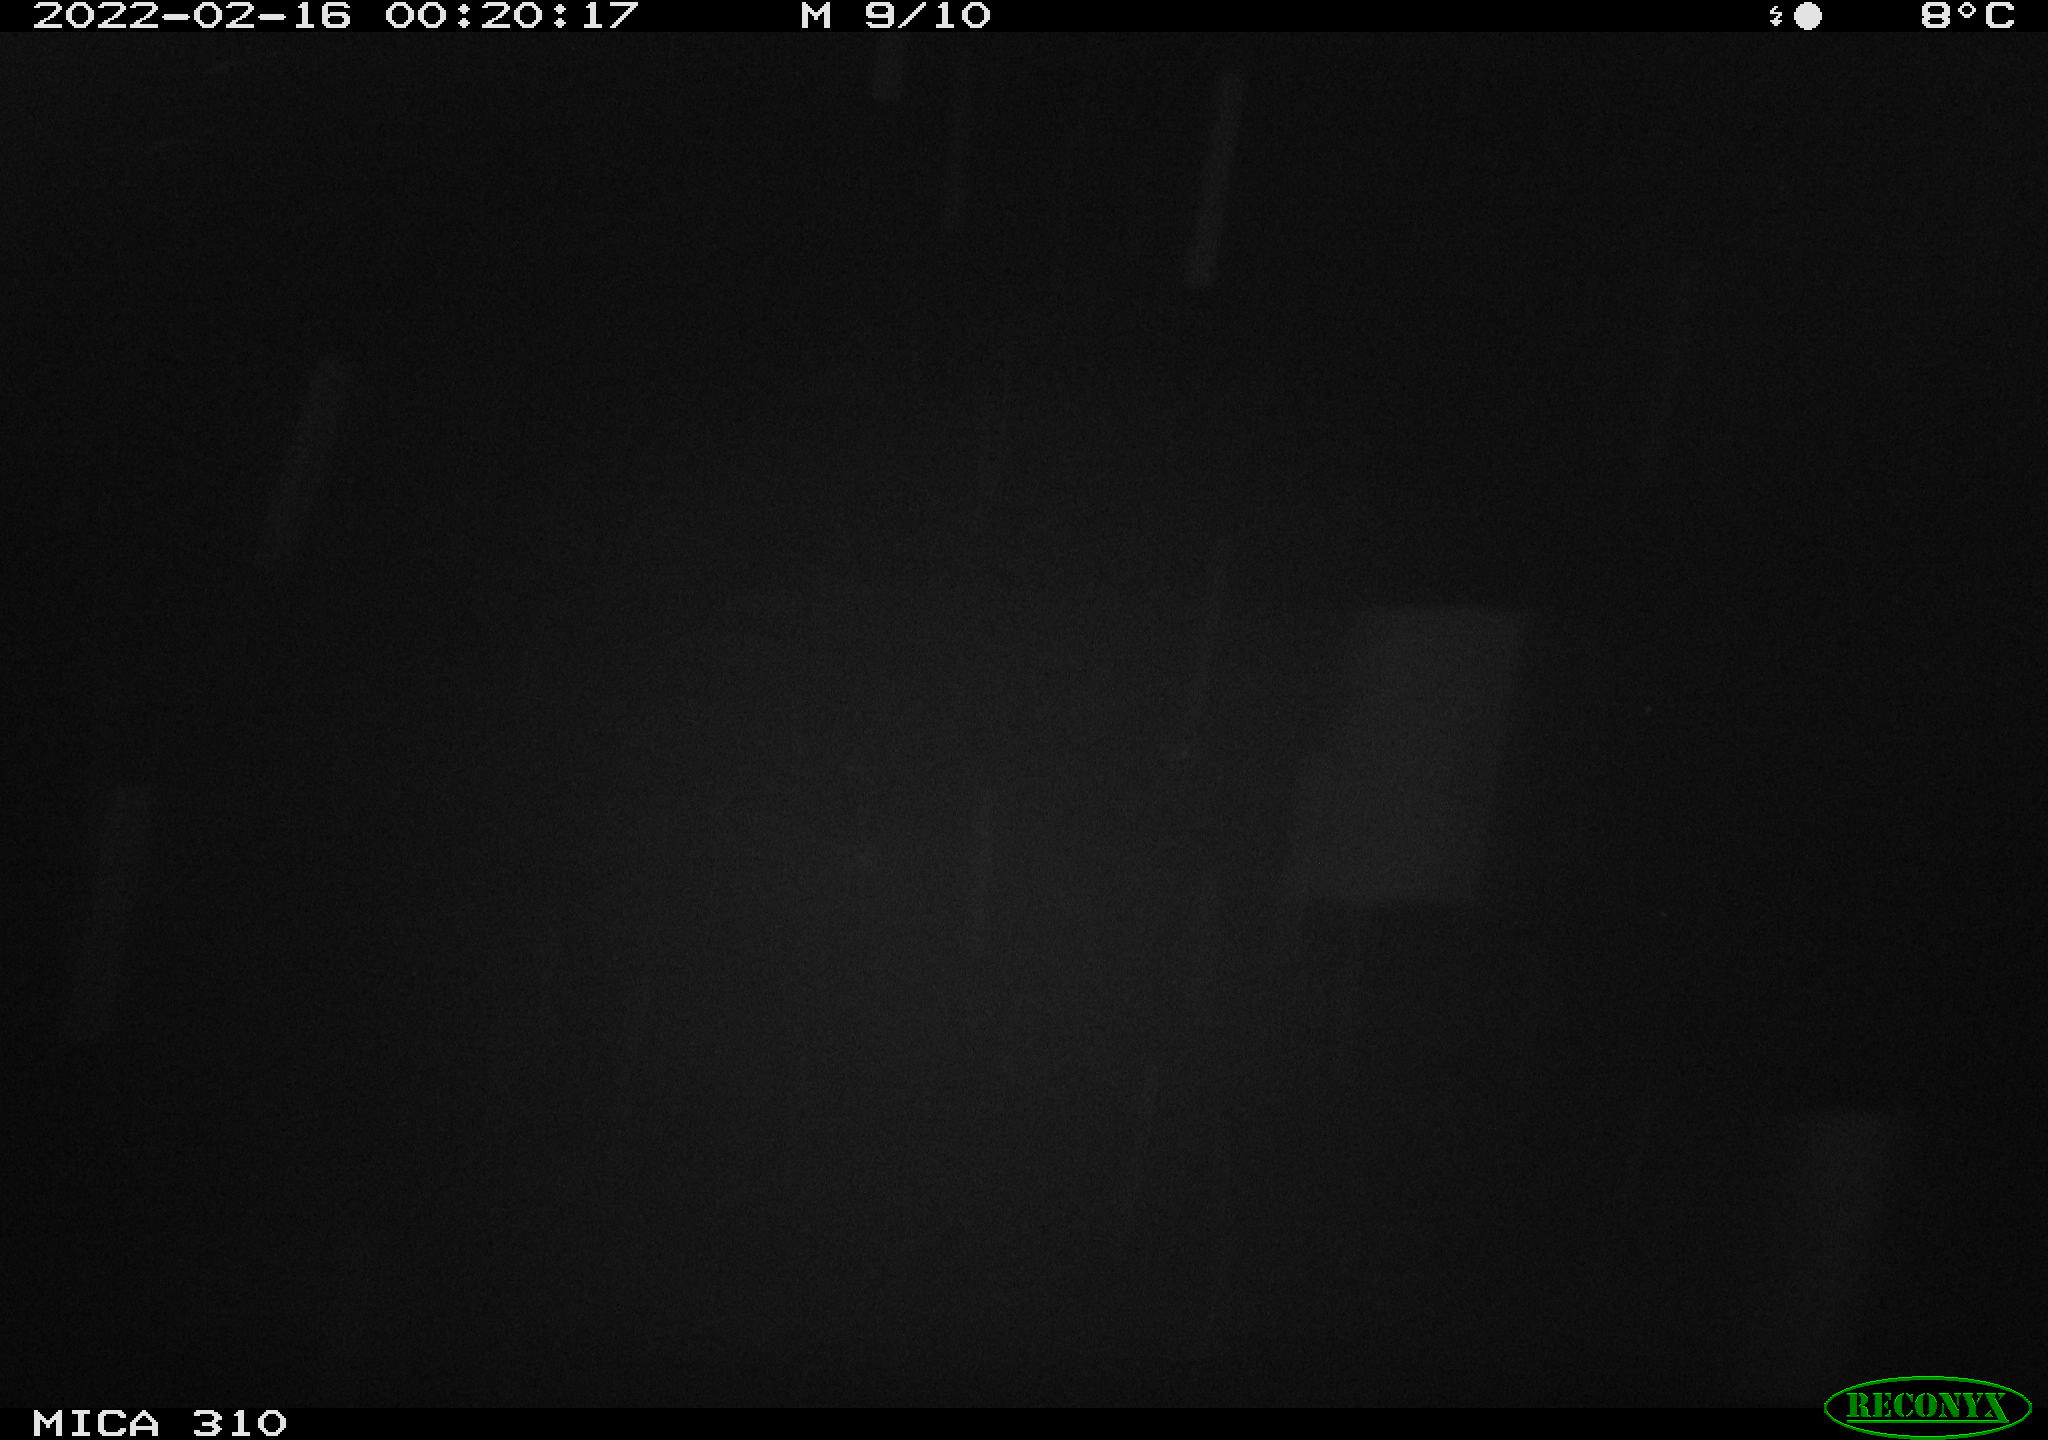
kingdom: Animalia
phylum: Chordata
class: Mammalia
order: Rodentia
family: Cricetidae
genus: Ondatra
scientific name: Ondatra zibethicus
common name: Muskrat
